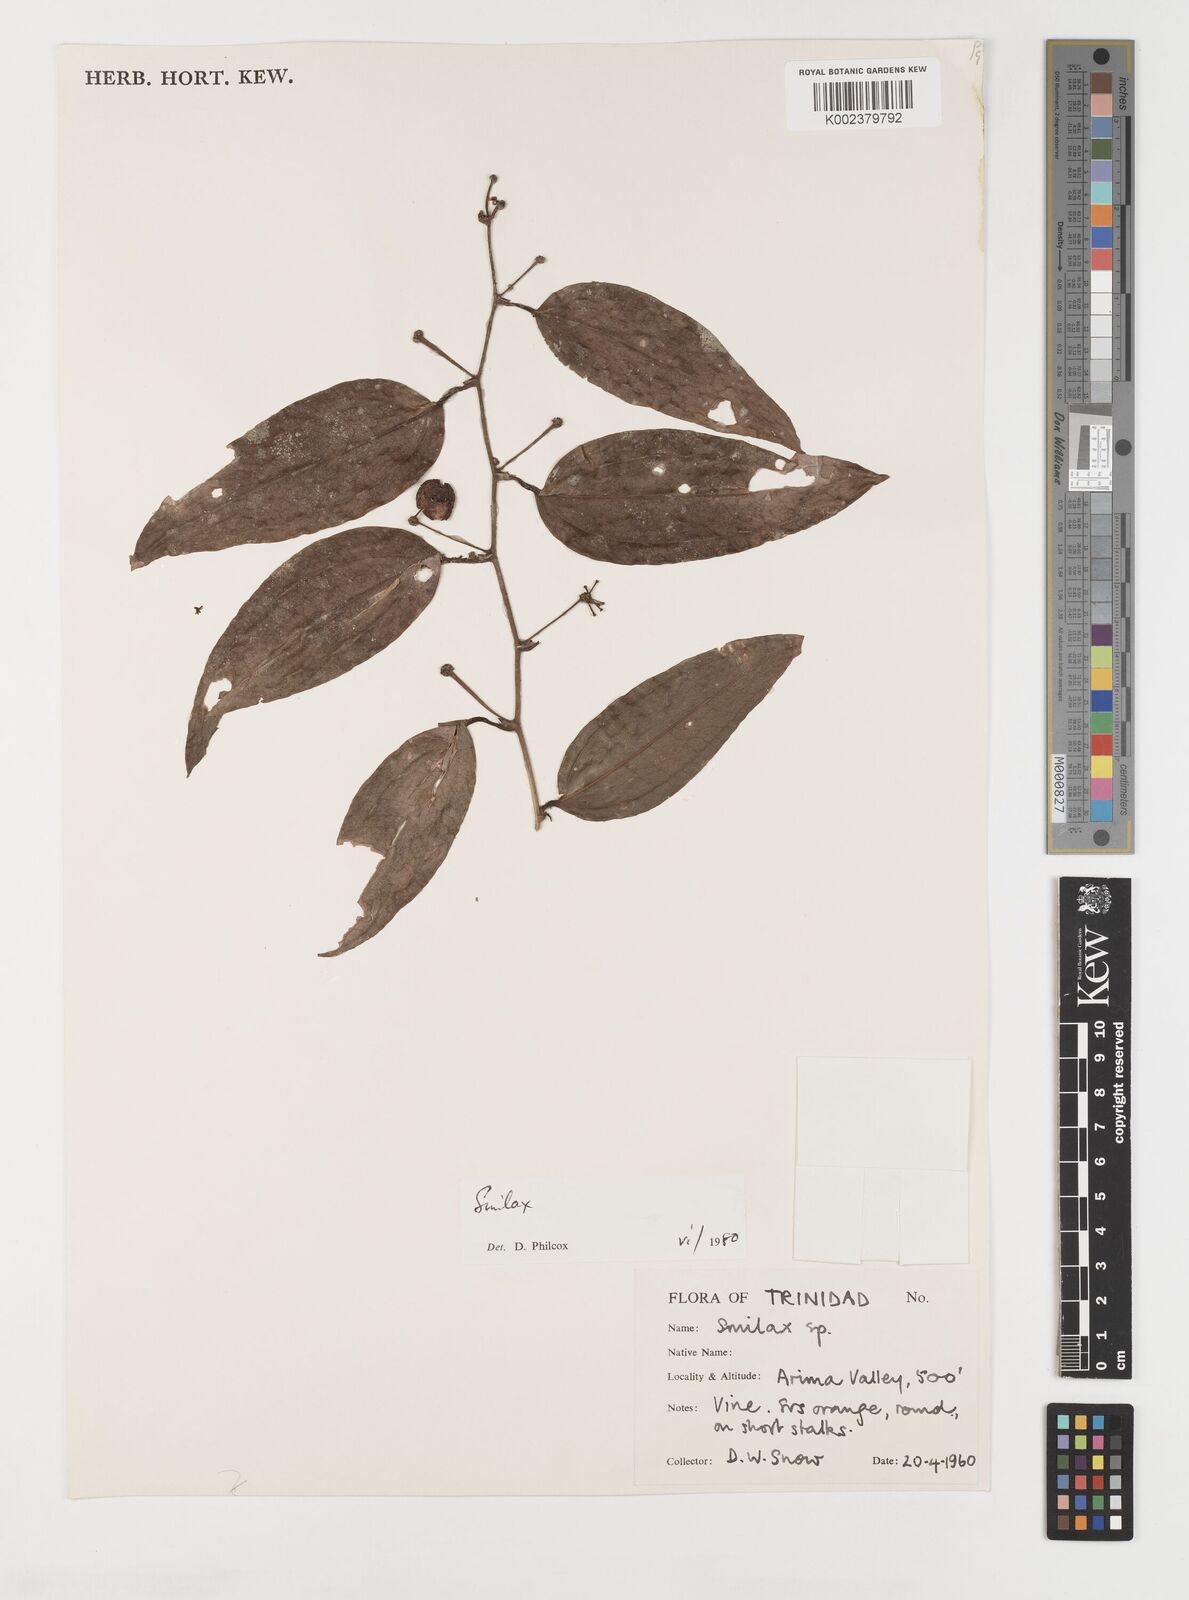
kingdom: Plantae
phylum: Tracheophyta
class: Liliopsida
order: Liliales
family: Smilacaceae
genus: Smilax
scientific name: Smilax oblongata
